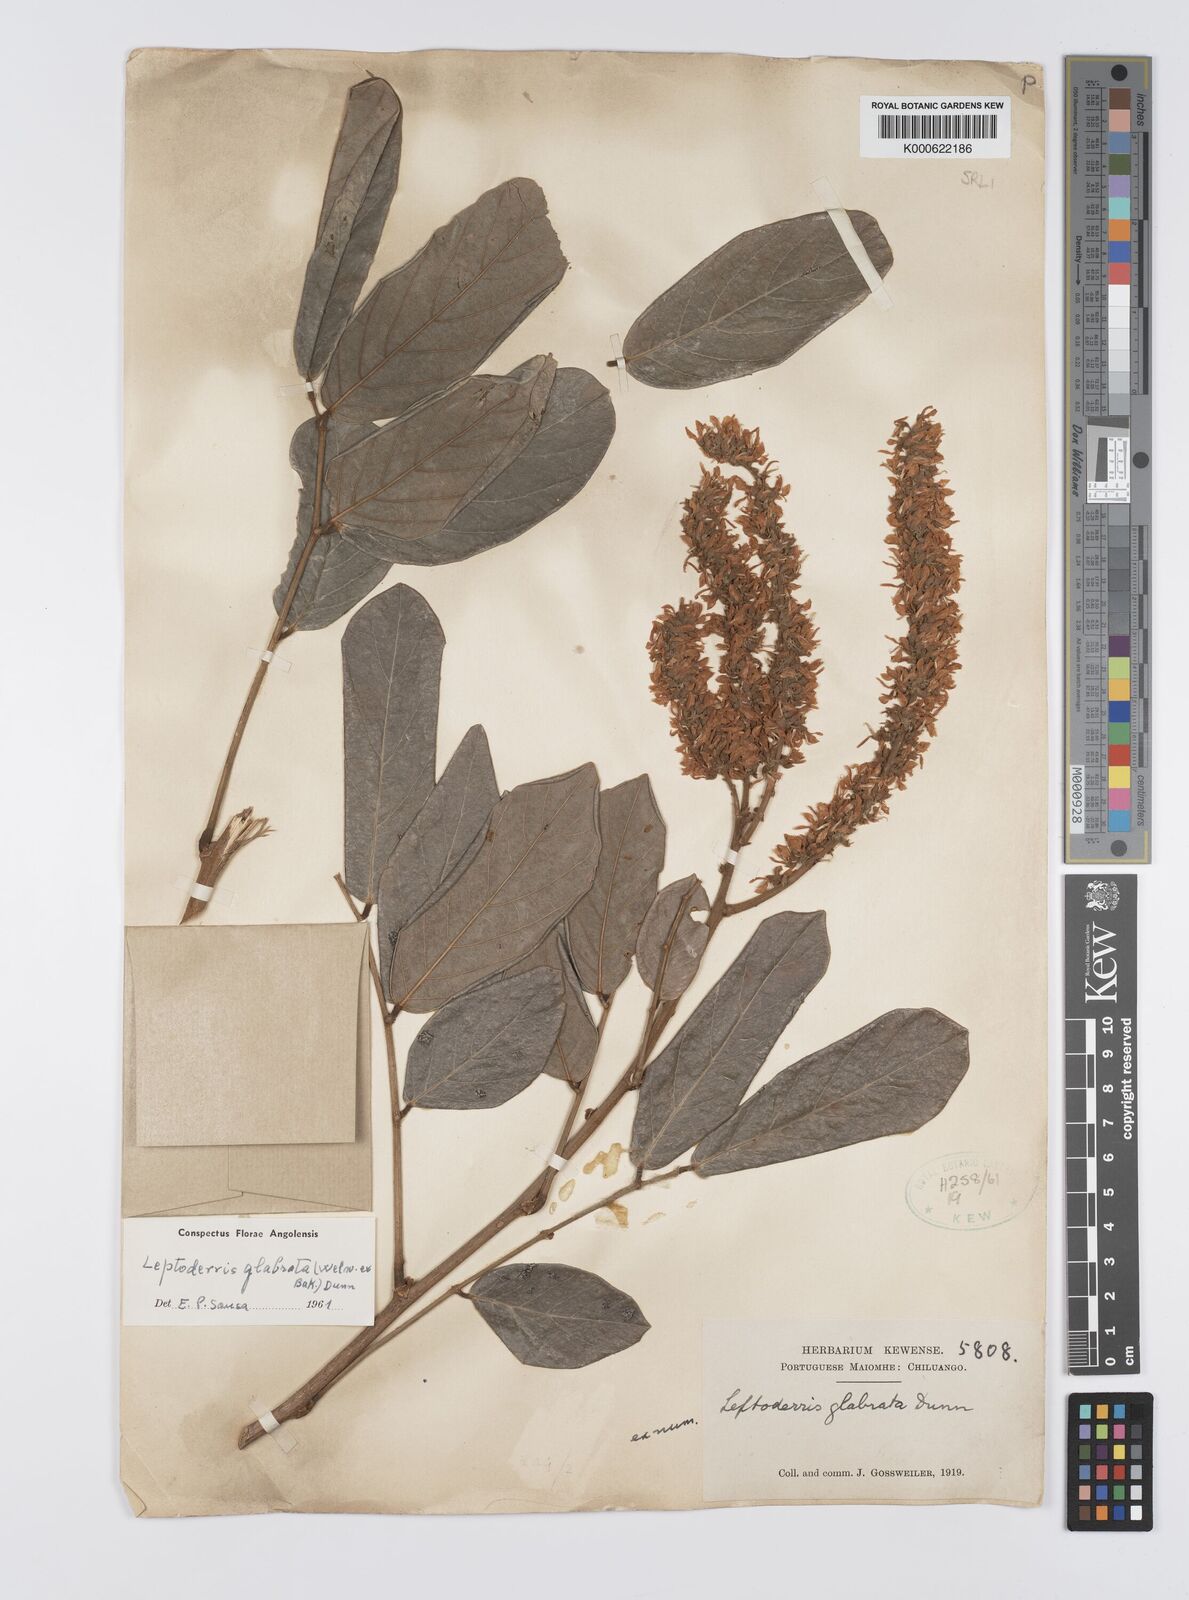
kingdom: Plantae
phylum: Tracheophyta
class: Magnoliopsida
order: Fabales
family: Fabaceae
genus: Leptoderris
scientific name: Leptoderris glabrata
